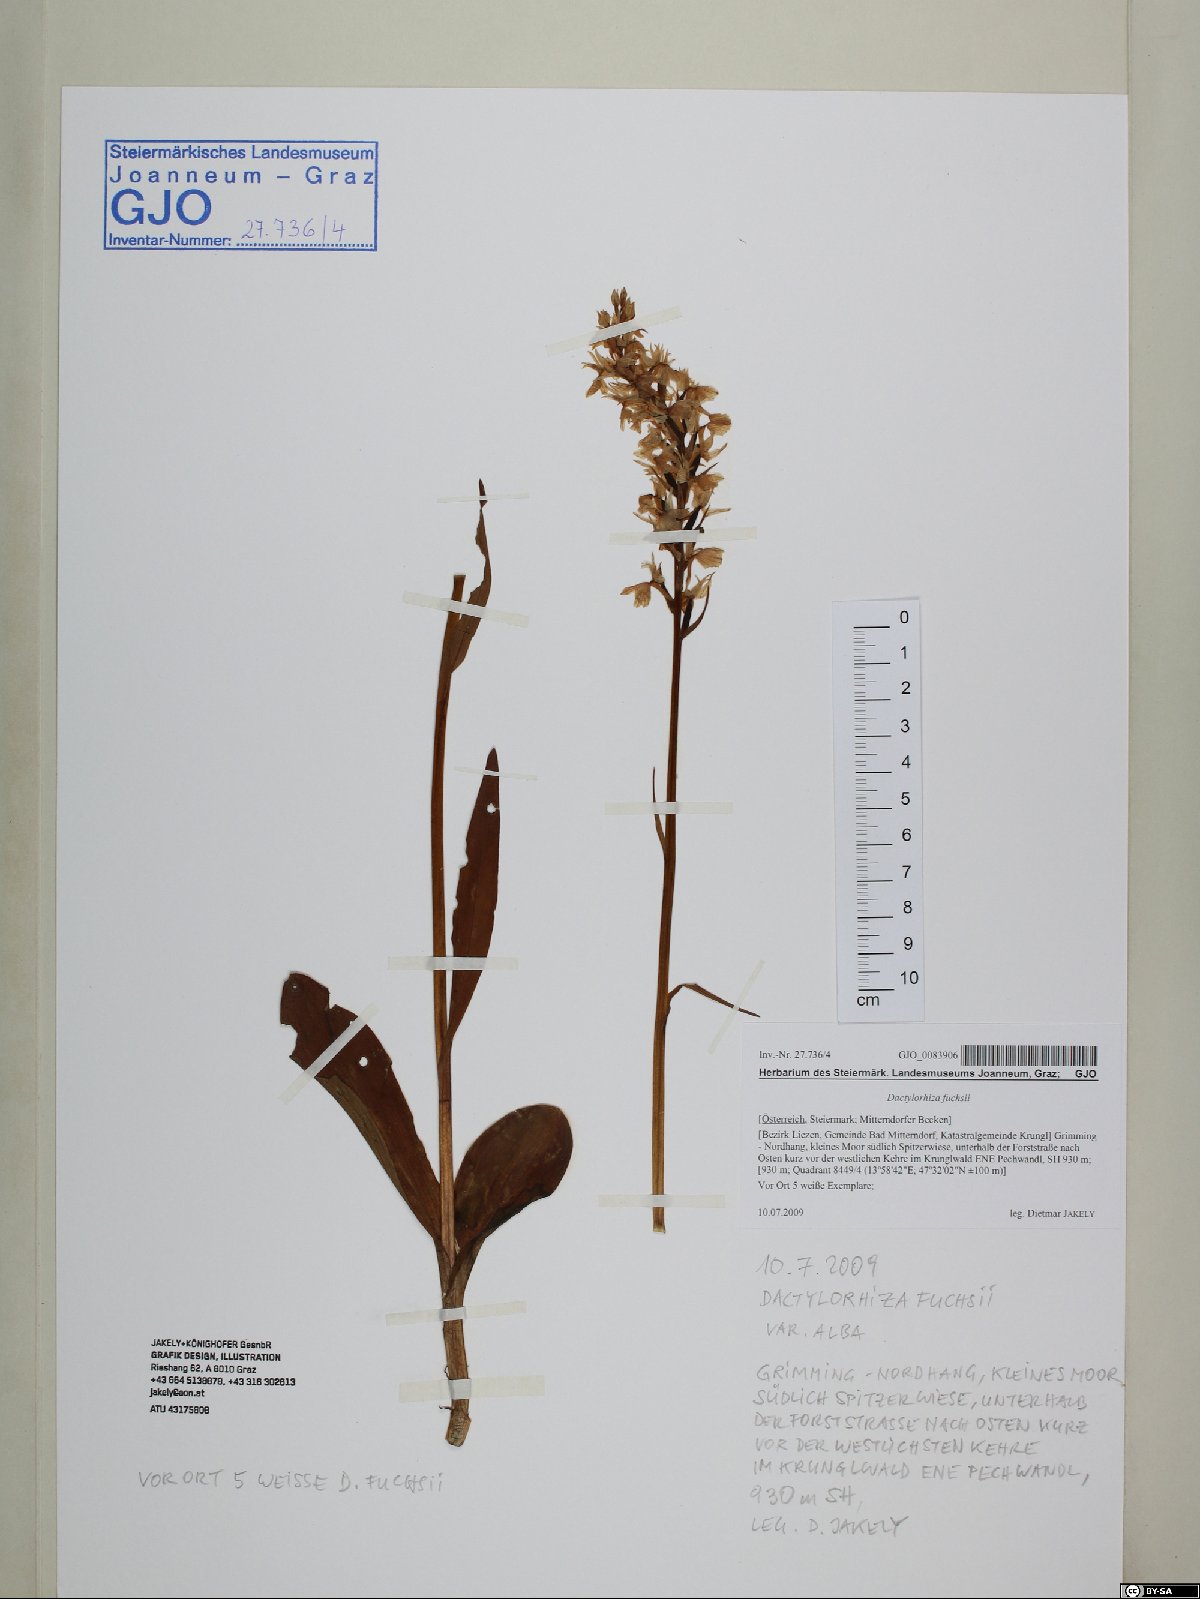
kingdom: Plantae
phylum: Tracheophyta
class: Liliopsida
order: Asparagales
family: Orchidaceae
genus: Dactylorhiza
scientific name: Dactylorhiza maculata
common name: Heath spotted-orchid
